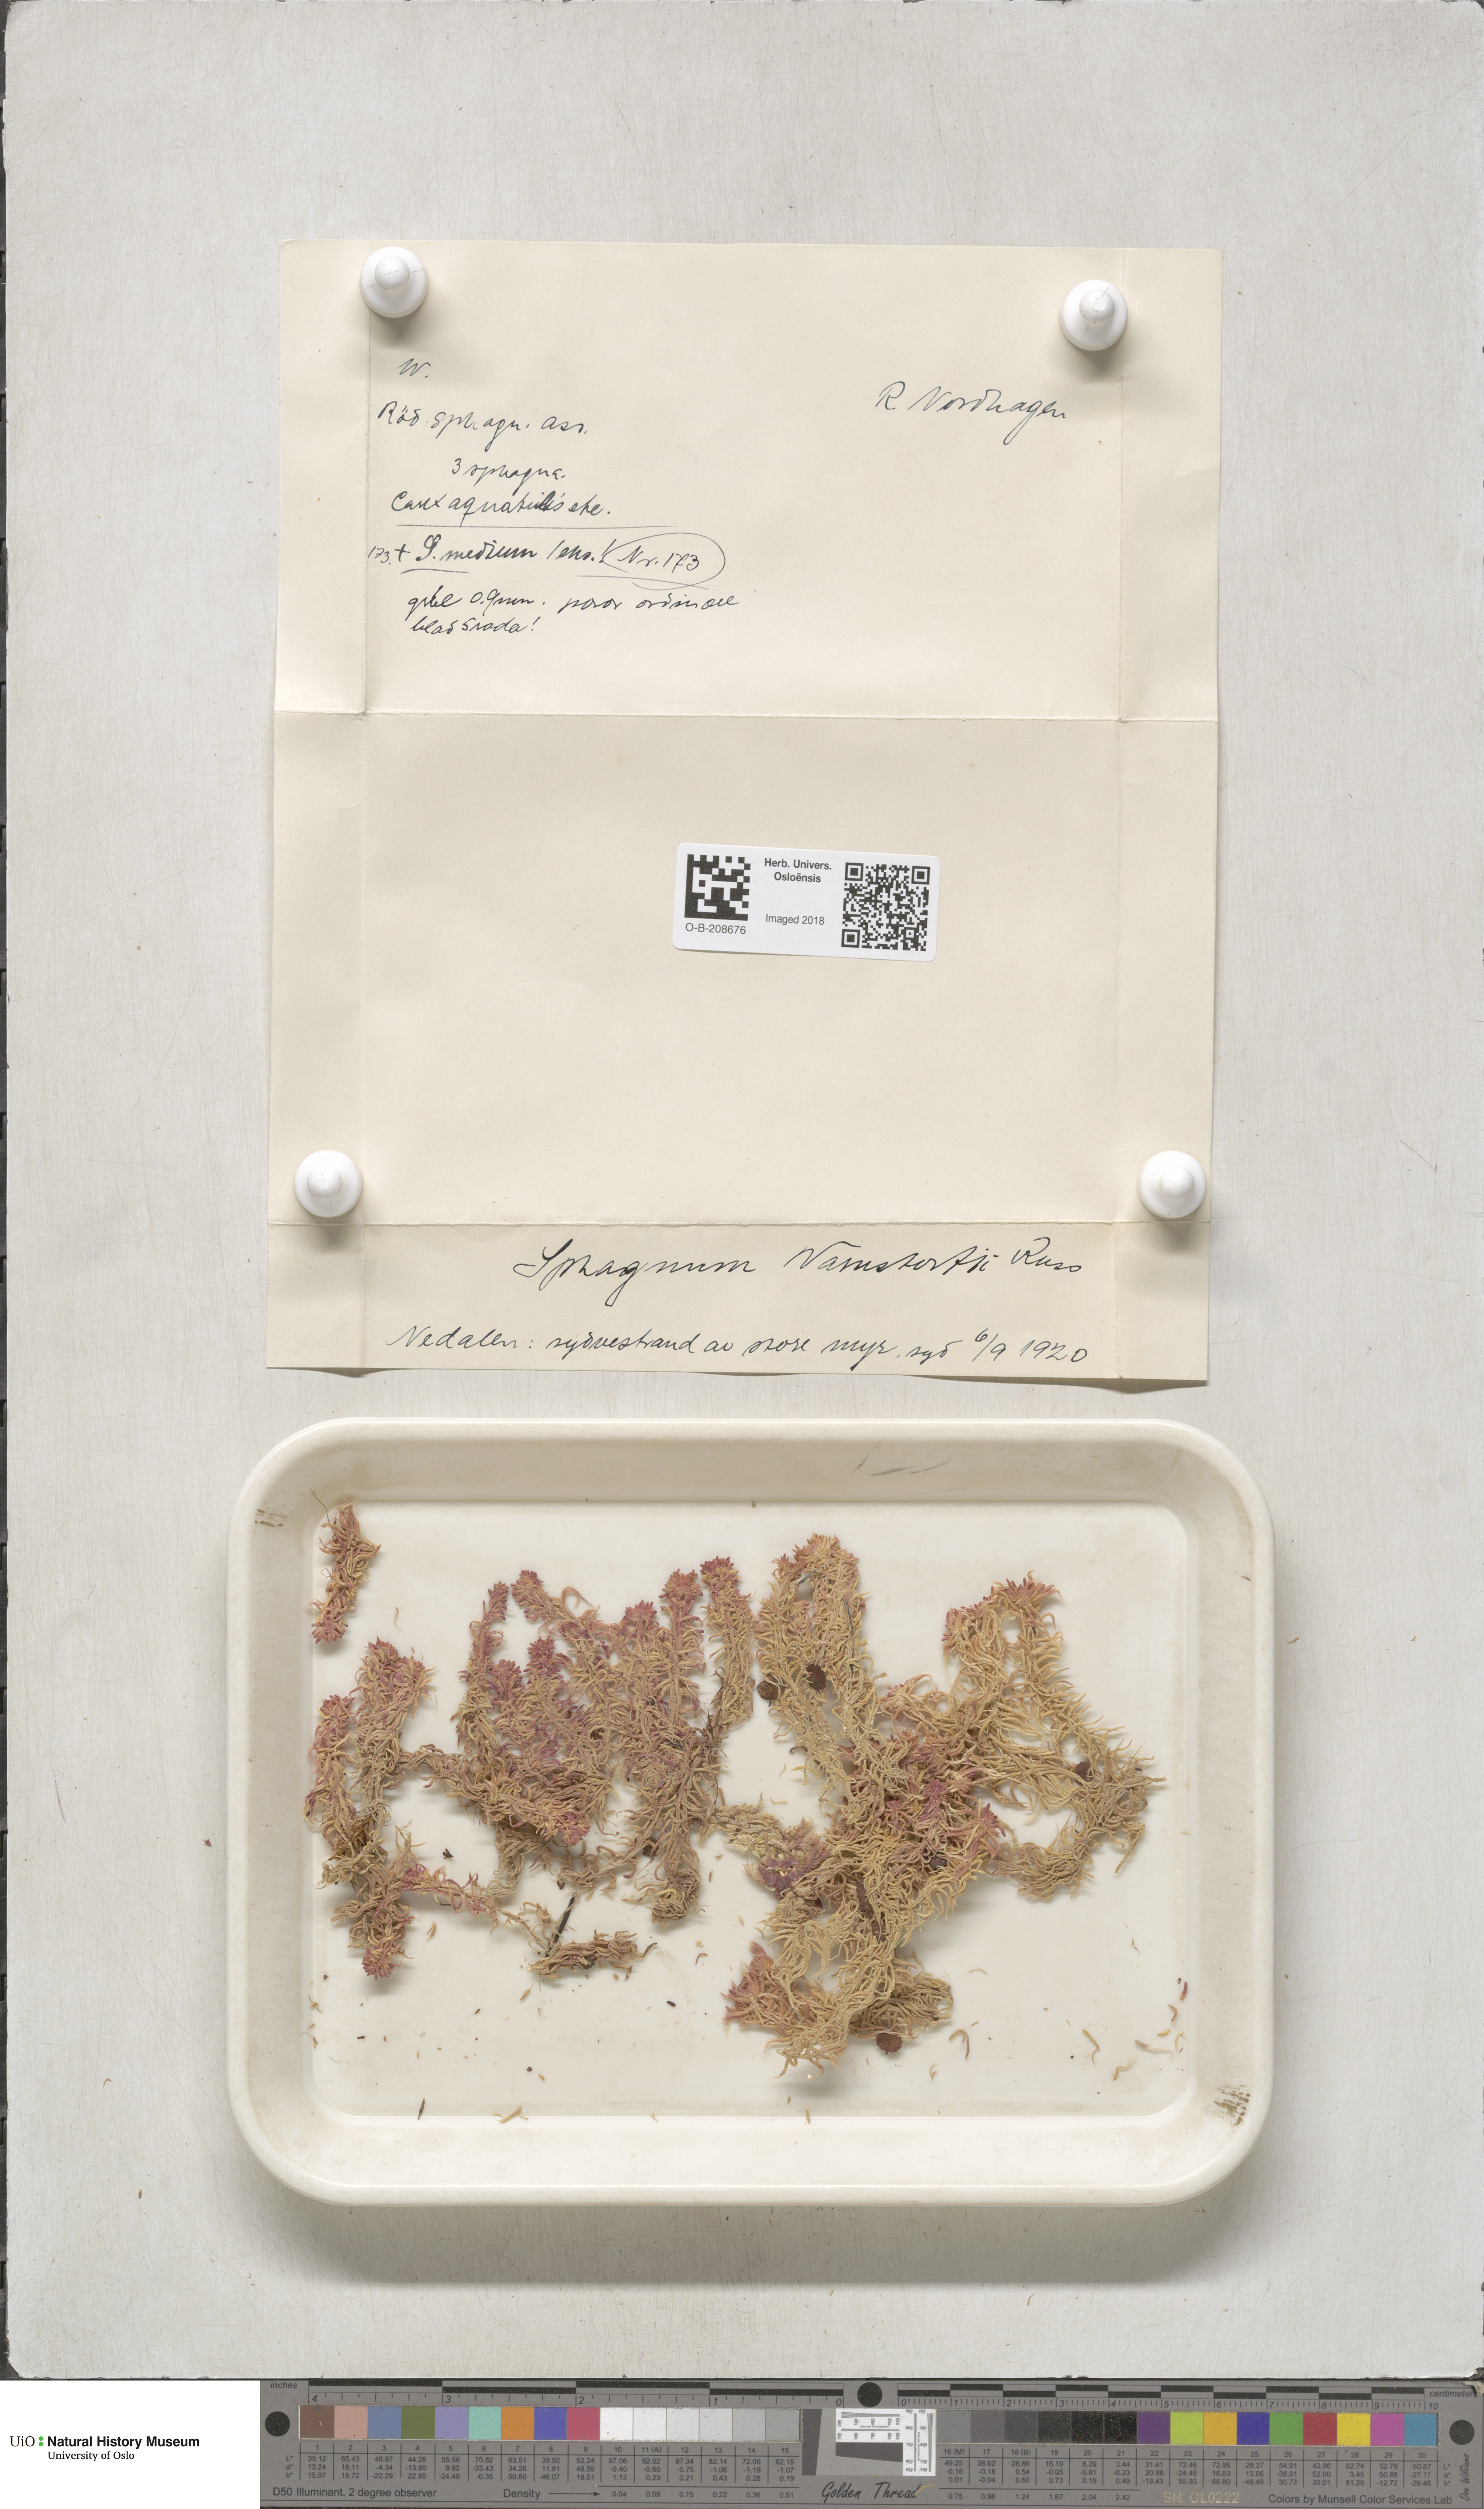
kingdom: Plantae
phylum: Bryophyta
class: Sphagnopsida
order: Sphagnales
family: Sphagnaceae
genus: Sphagnum
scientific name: Sphagnum warnstorfii
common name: Warnstorf's peat moss
